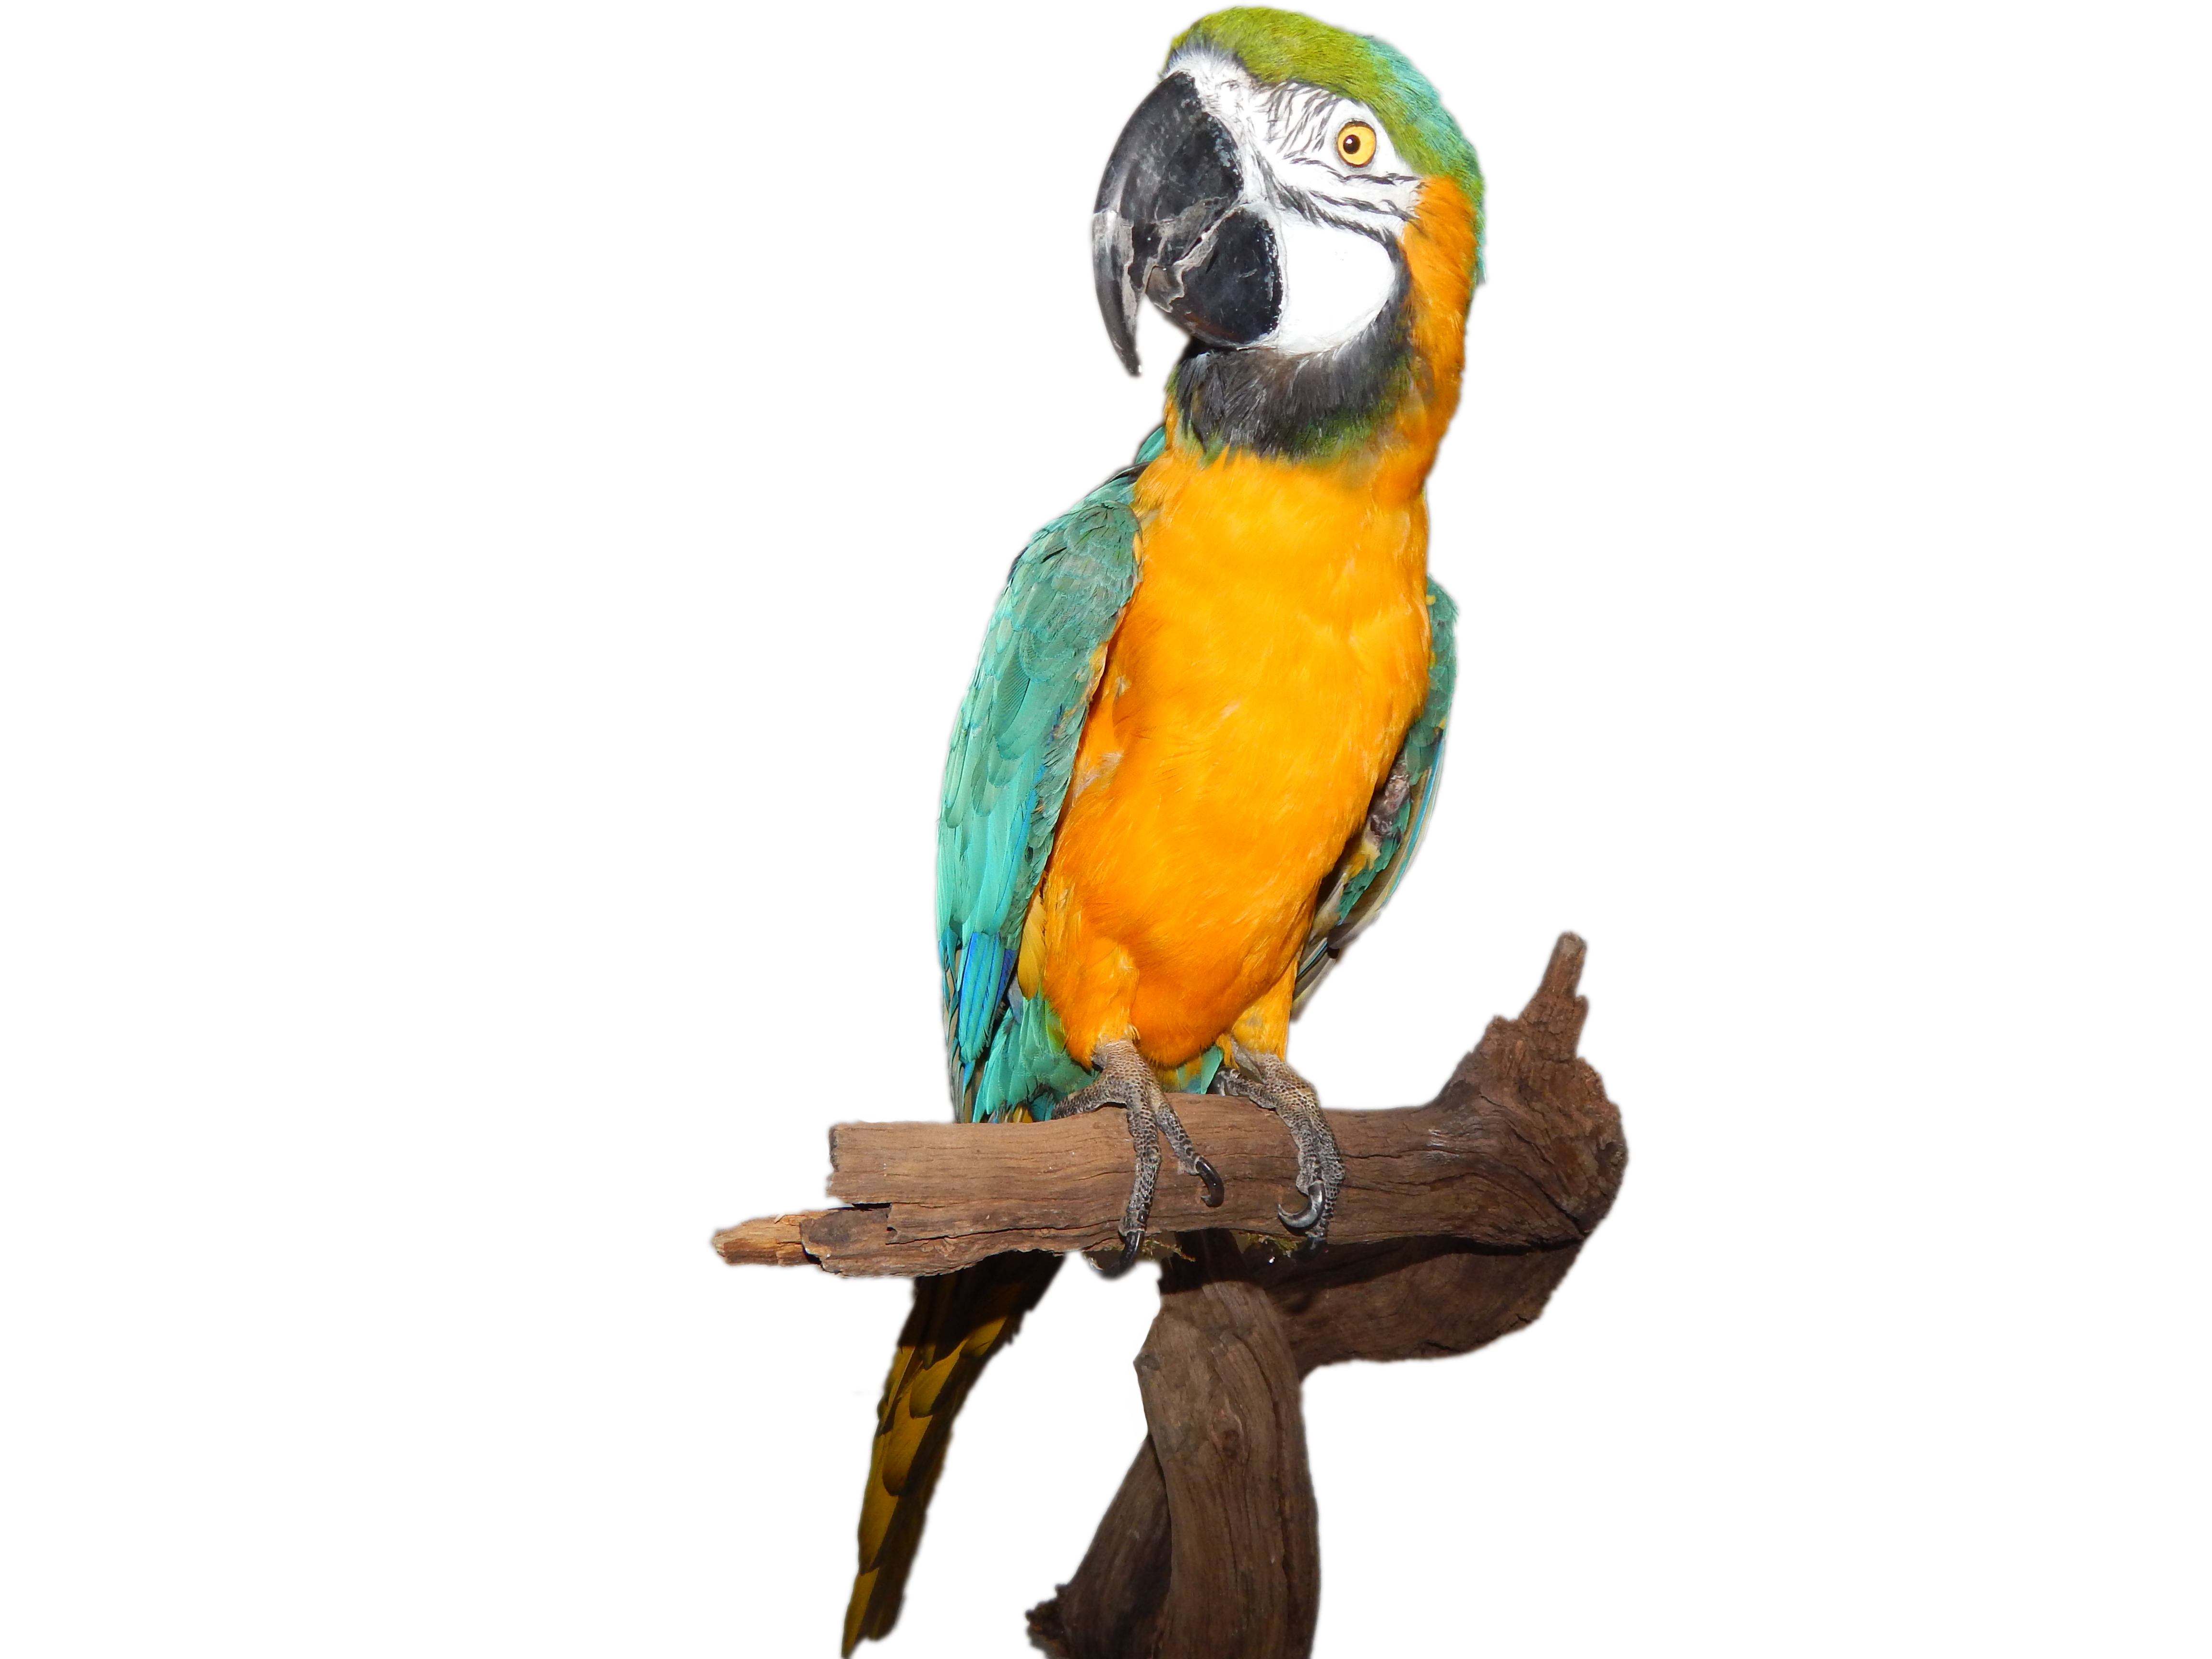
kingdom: Animalia
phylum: Chordata
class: Aves
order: Psittaciformes
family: Psittacidae
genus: Ara
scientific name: Ara ararauna
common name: Blue-and-yellow macaw
